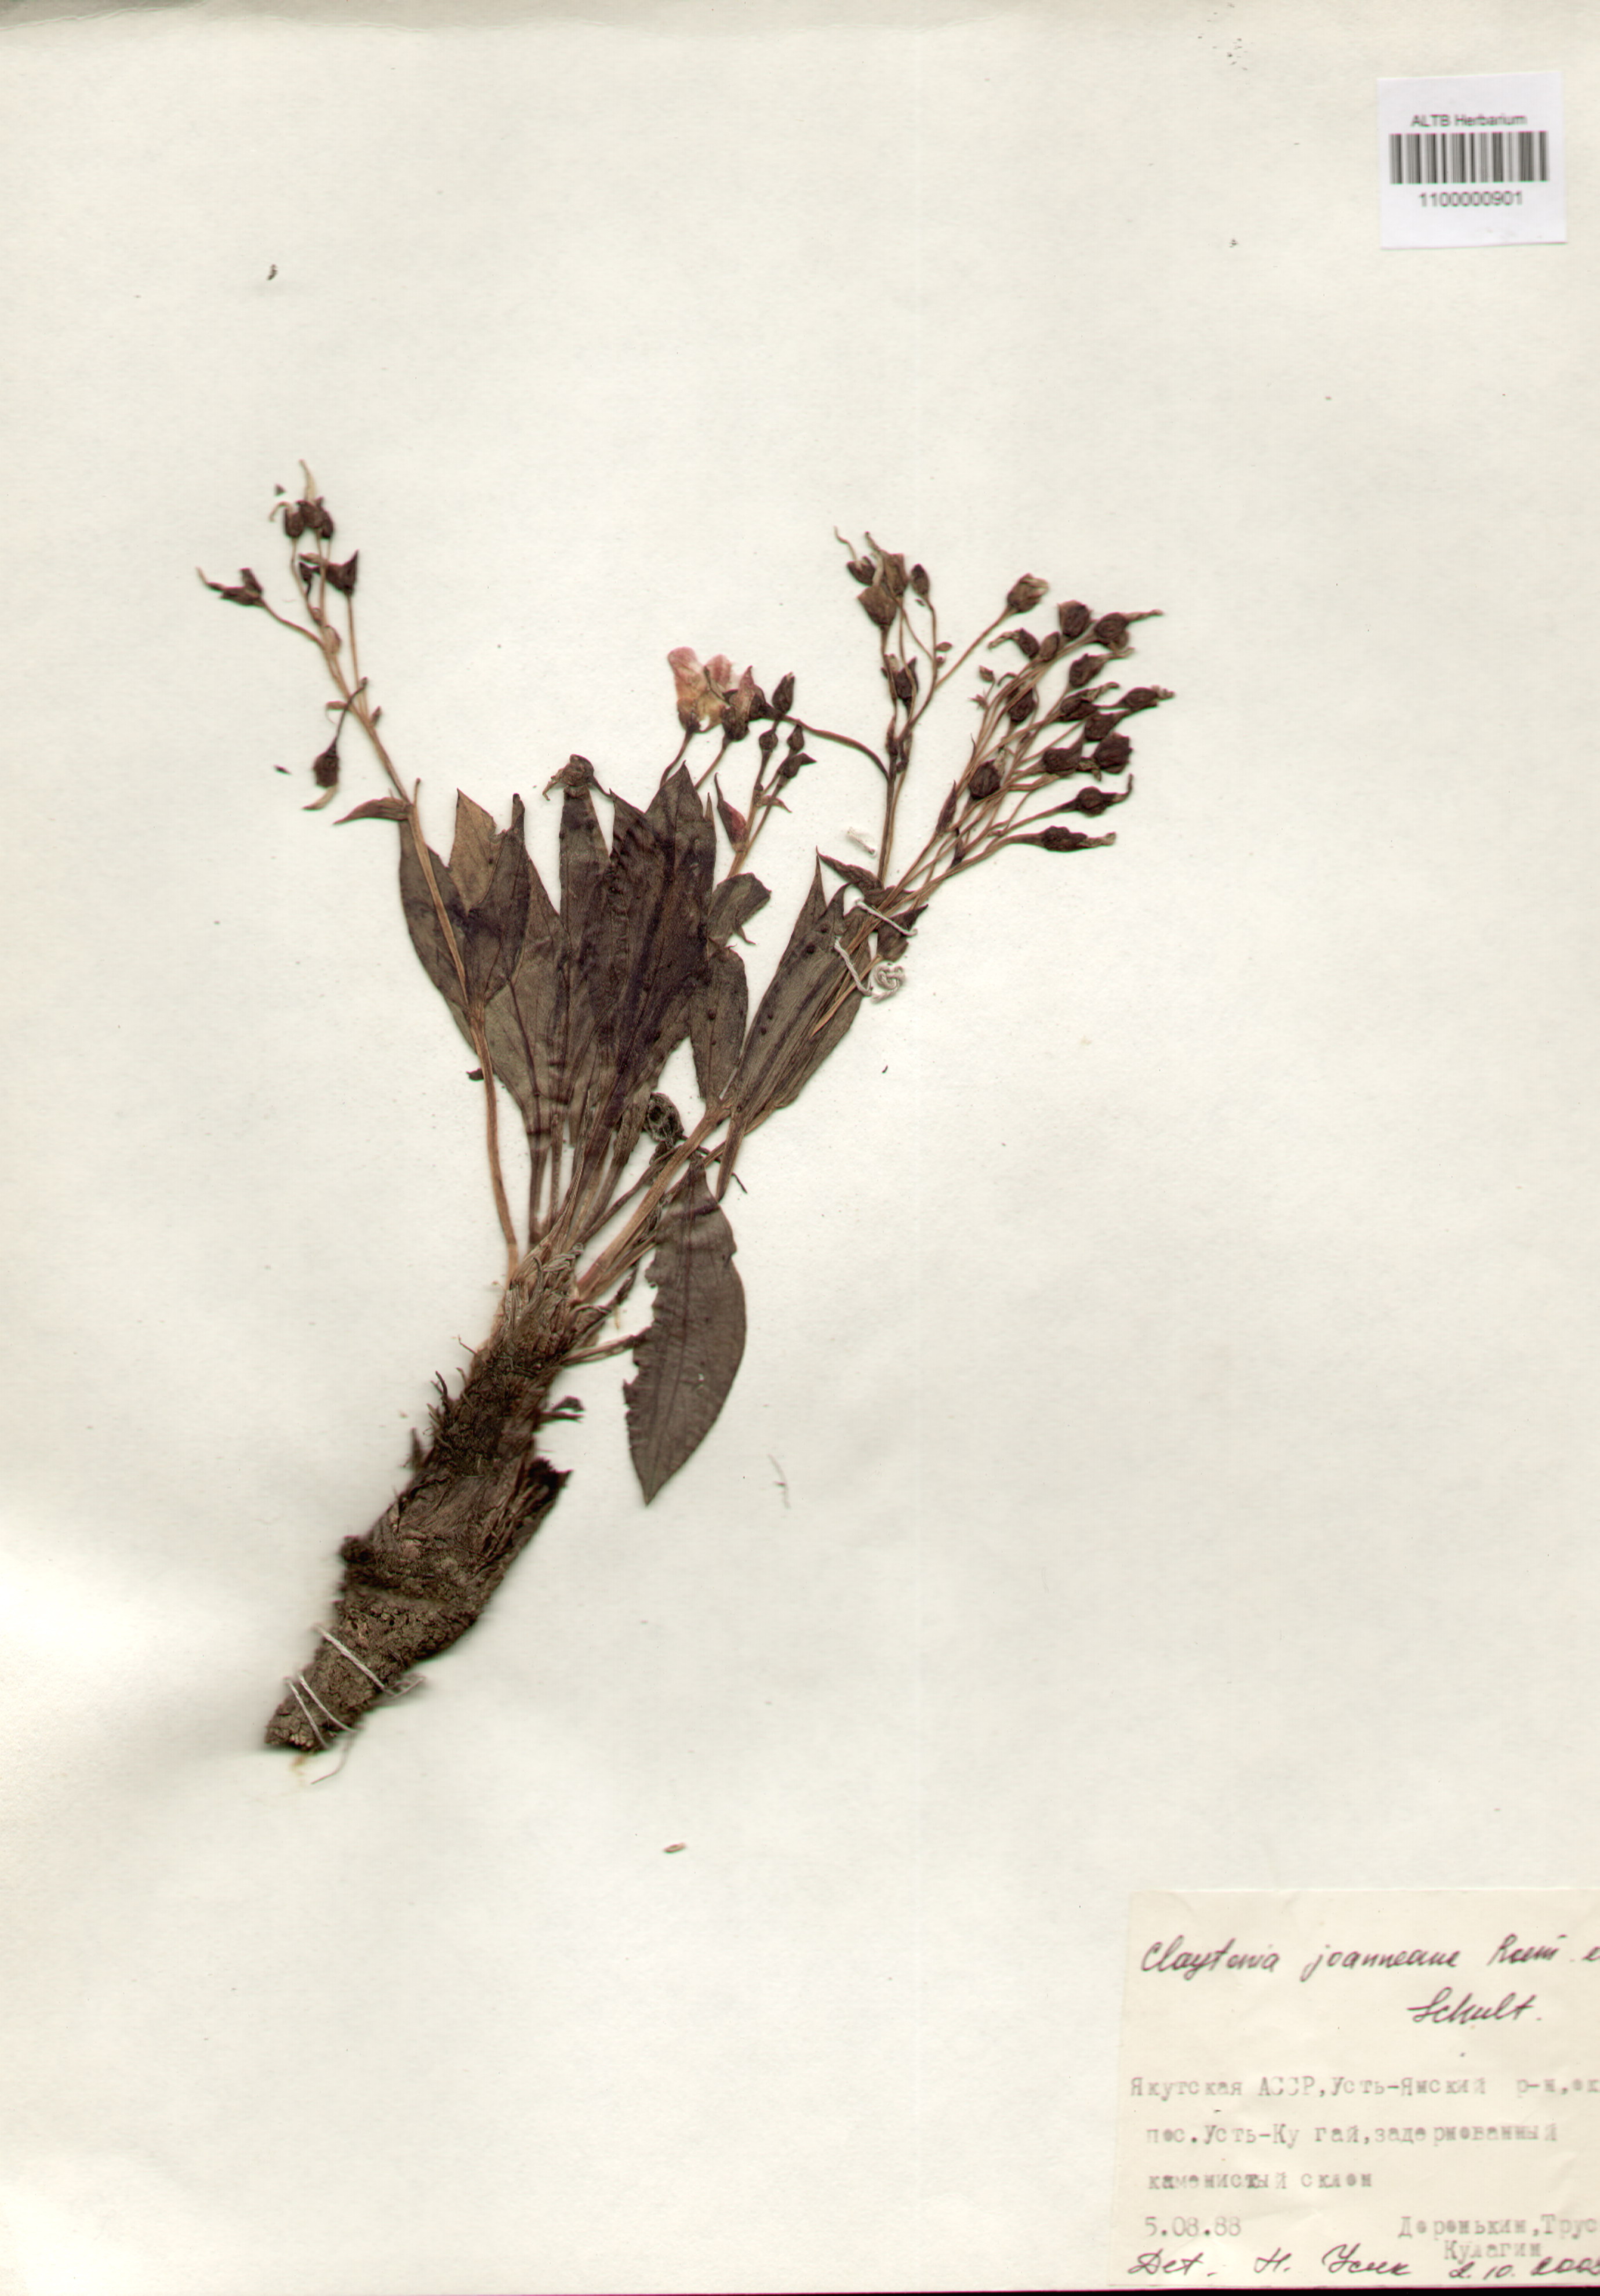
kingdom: Plantae
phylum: Tracheophyta
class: Magnoliopsida
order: Caryophyllales
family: Montiaceae
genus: Claytonia
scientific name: Claytonia joanneana
